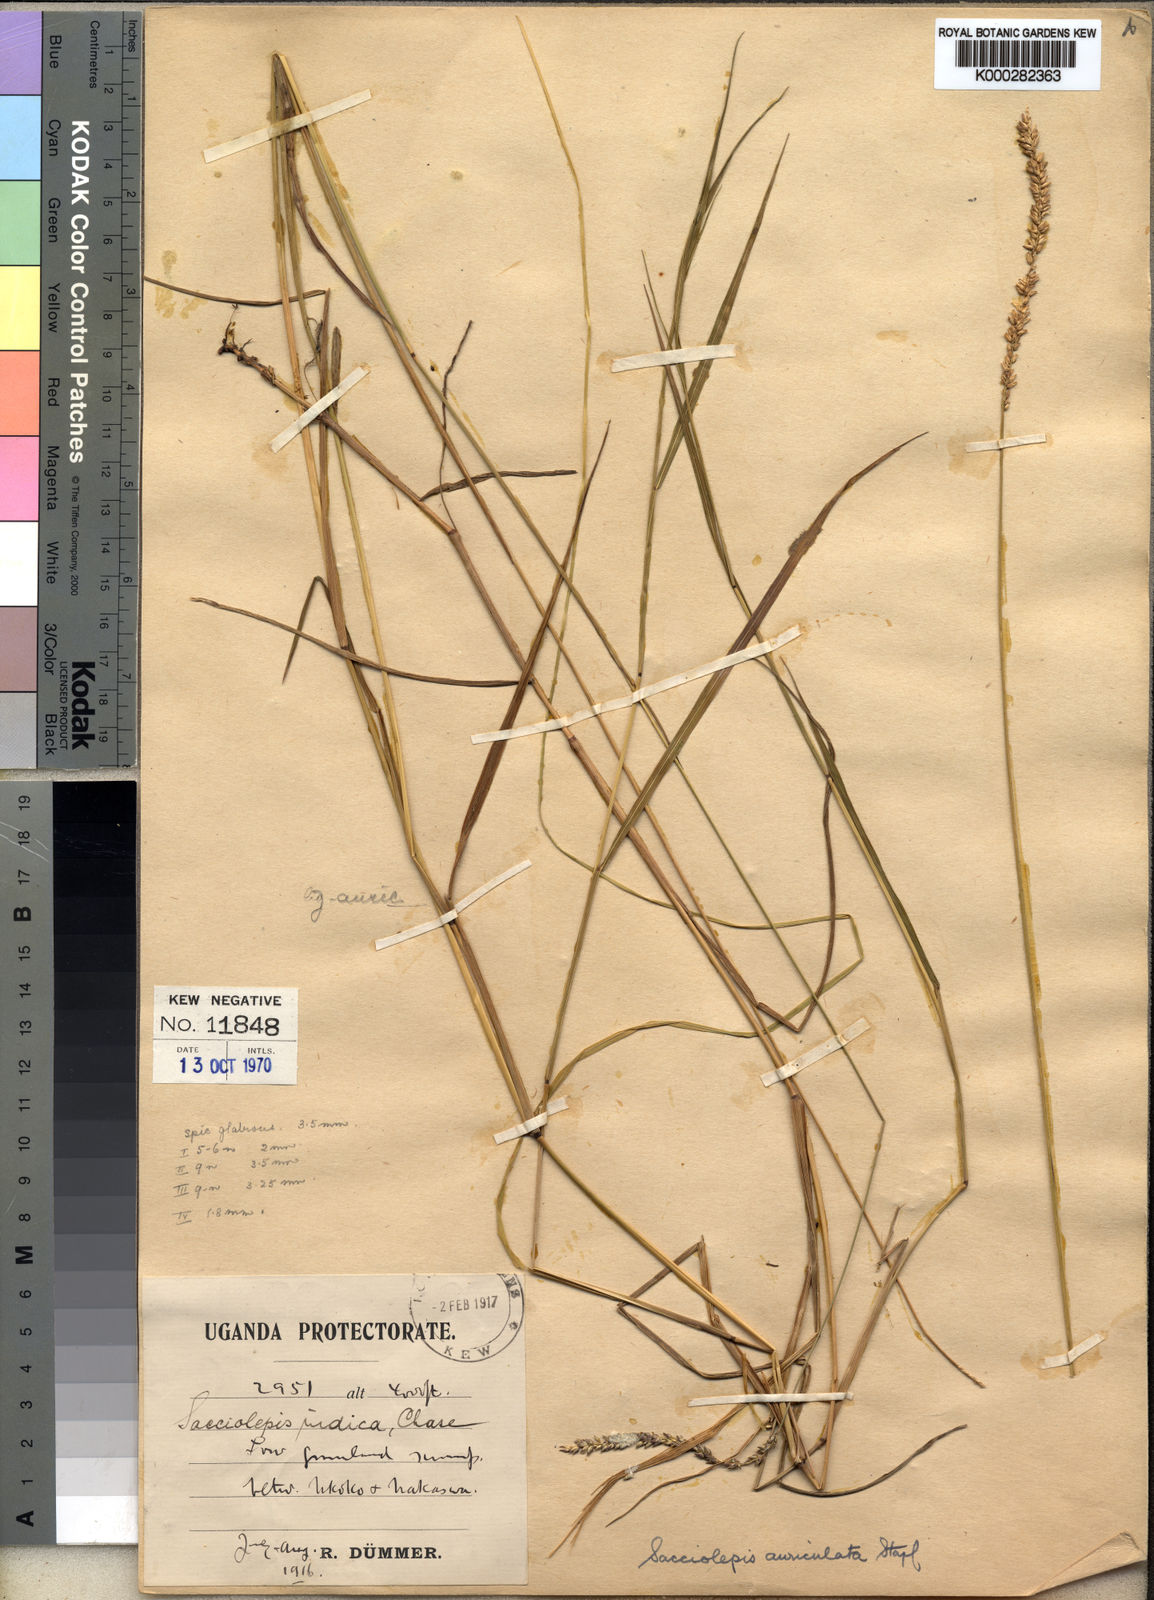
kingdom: Plantae
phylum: Tracheophyta
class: Liliopsida
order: Poales
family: Poaceae
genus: Sacciolepis
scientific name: Sacciolepis indica
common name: Glenwoodgrass
